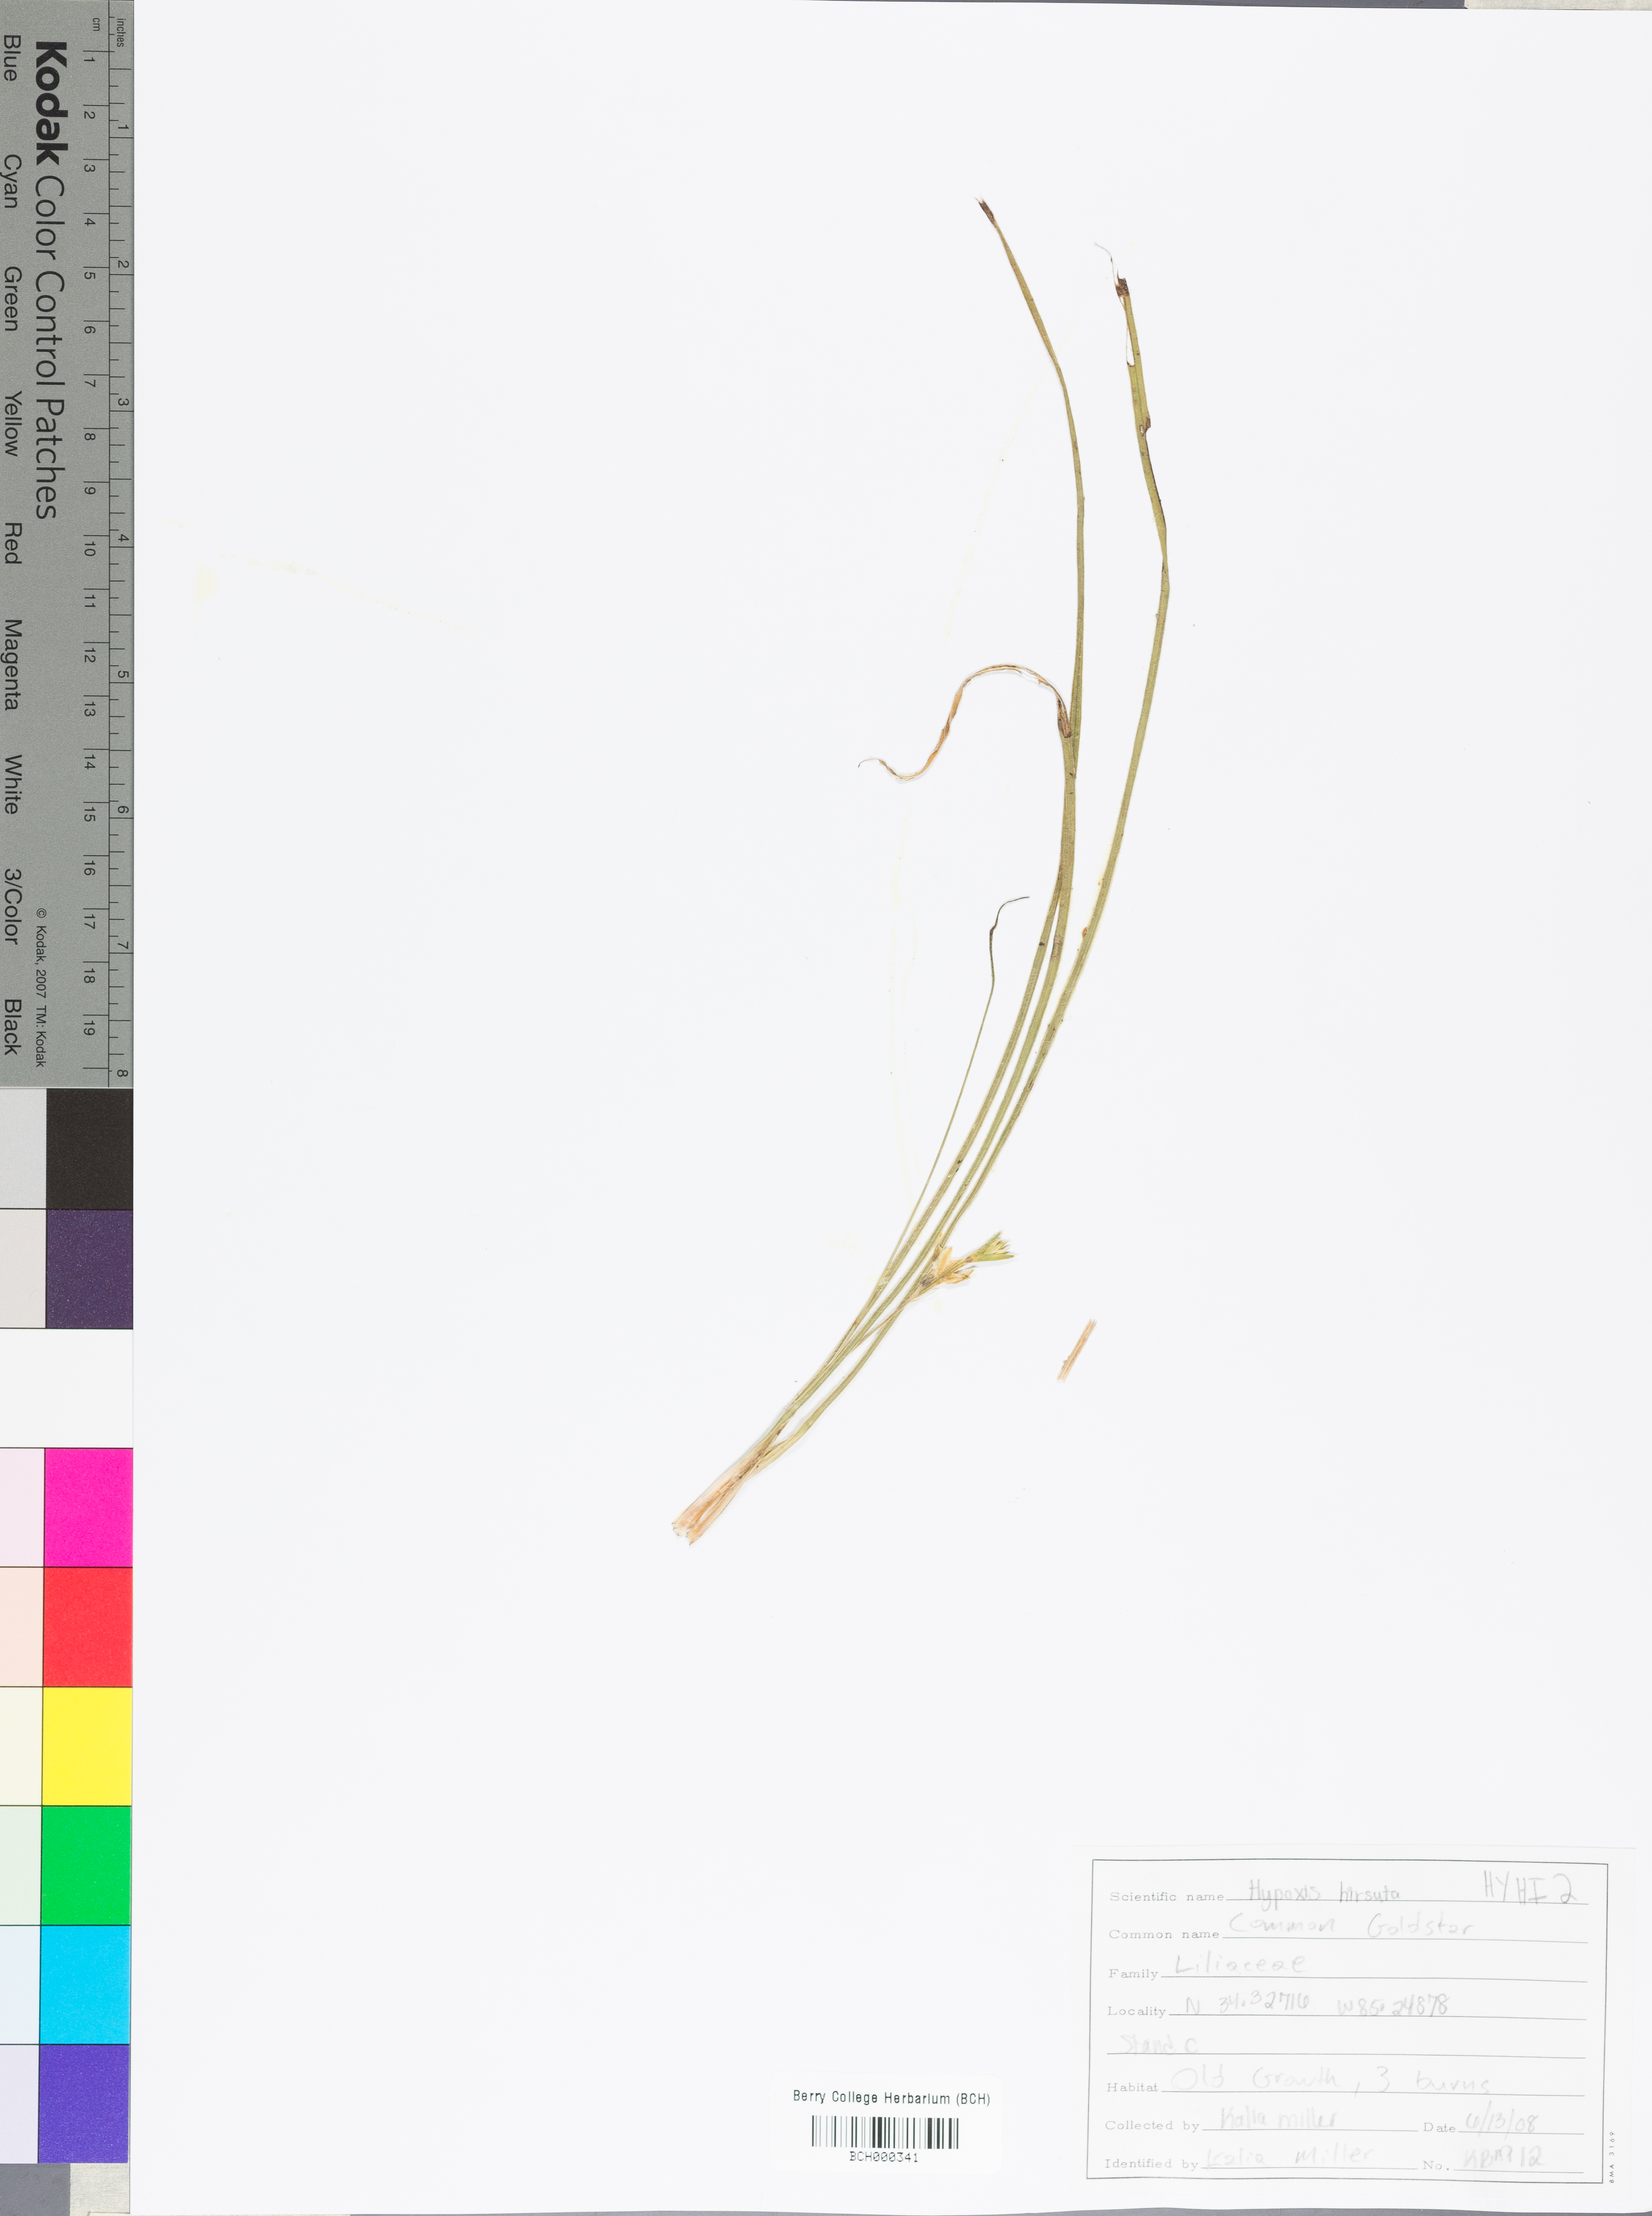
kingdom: Plantae
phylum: Tracheophyta
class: Liliopsida
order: Asparagales
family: Hypoxidaceae
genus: Hypoxis
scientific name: Hypoxis hirsuta
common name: Common goldstar
